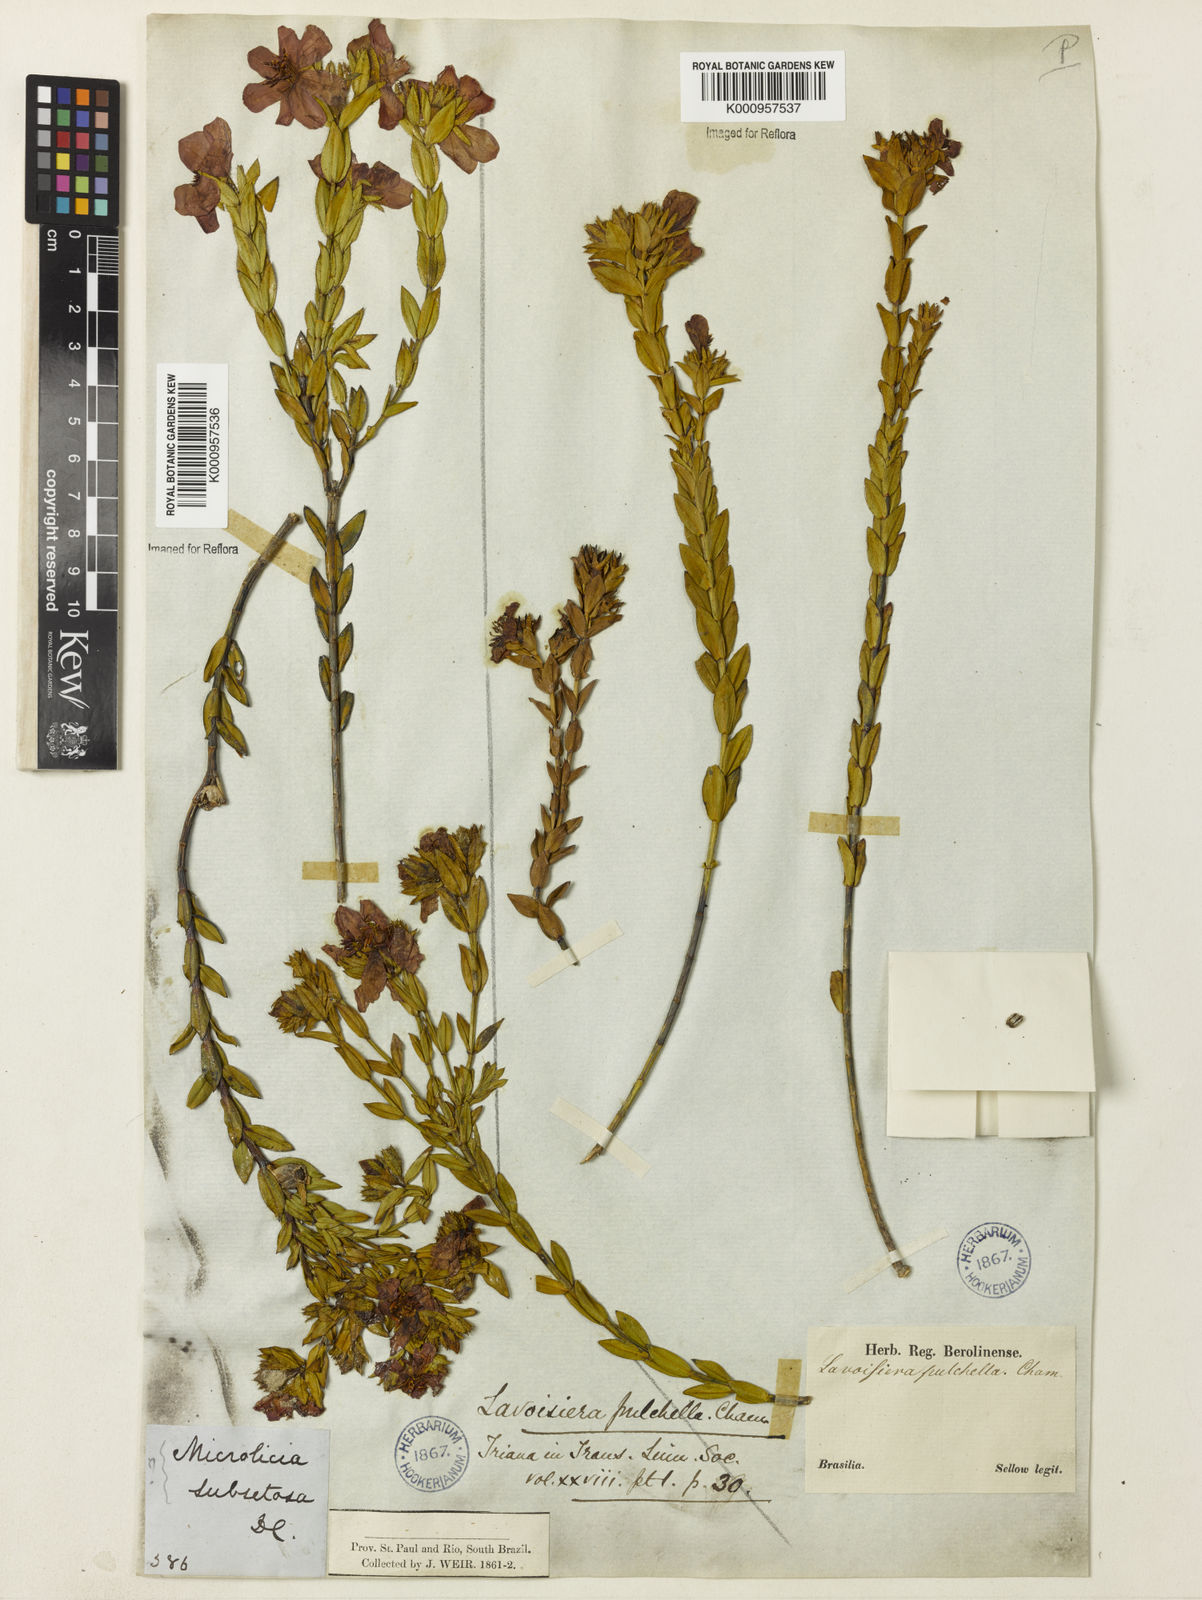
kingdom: Plantae
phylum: Tracheophyta
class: Magnoliopsida
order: Myrtales
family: Melastomataceae
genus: Microlicia
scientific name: Microlicia australis
